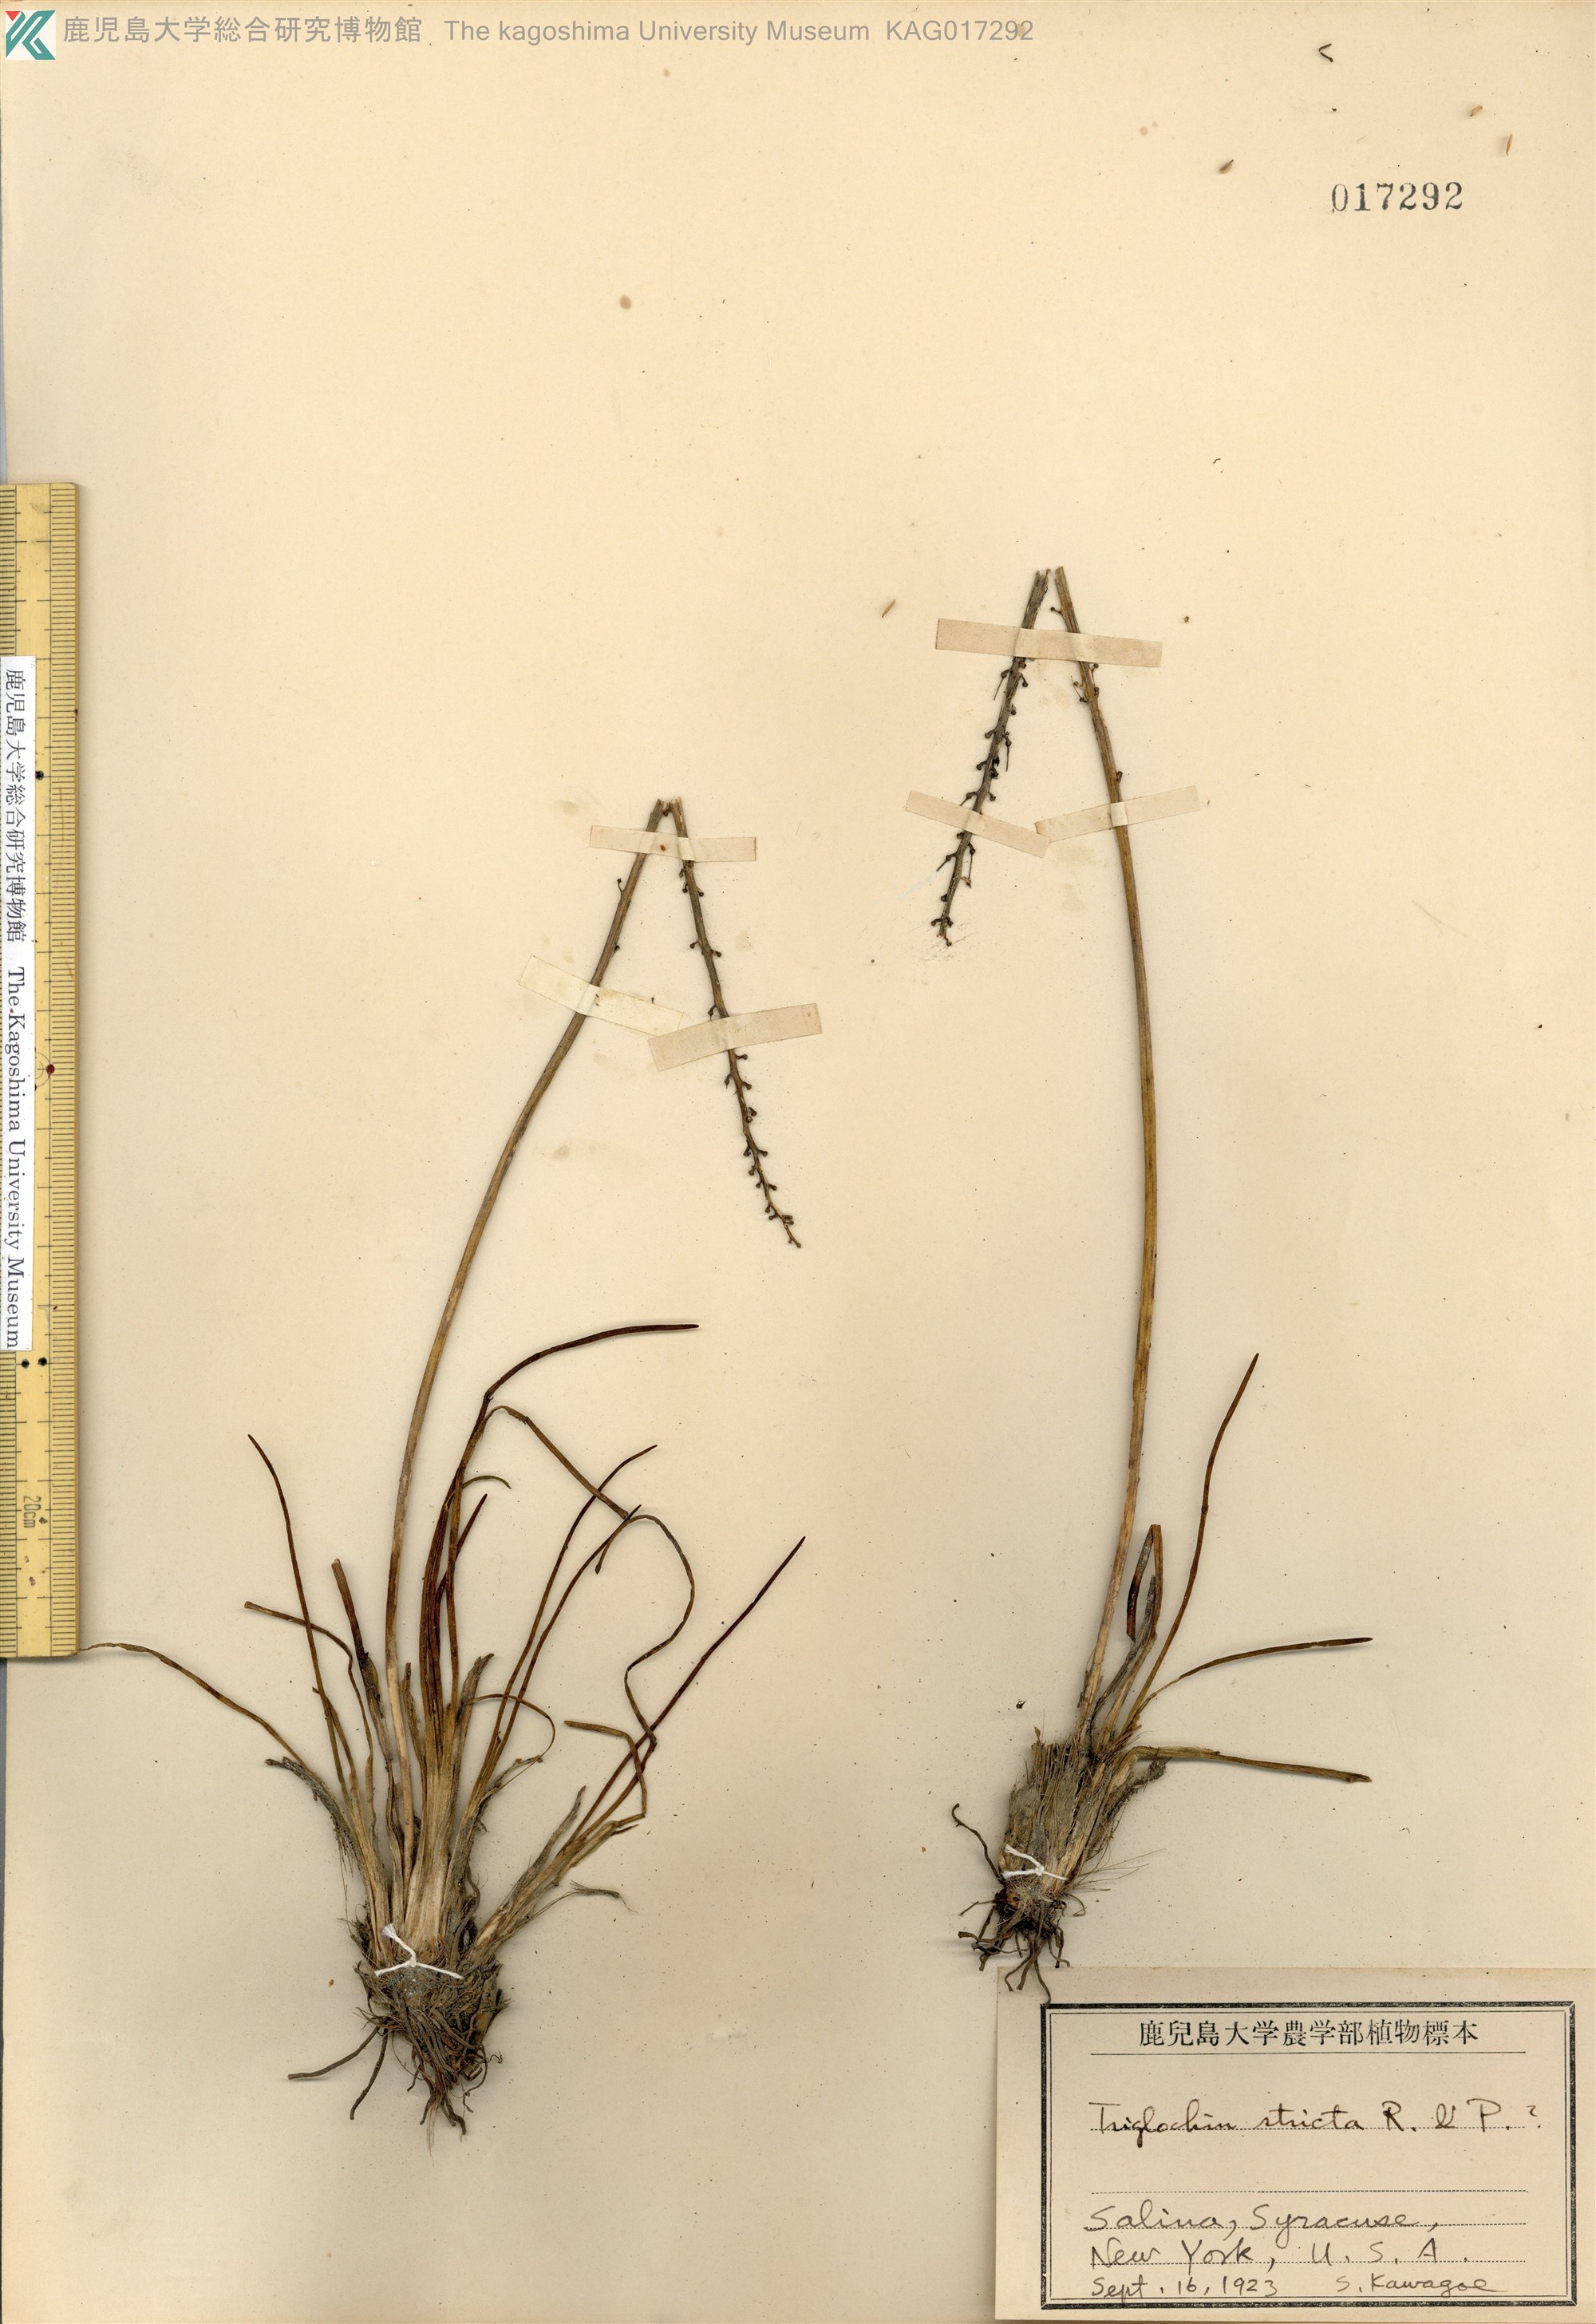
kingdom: Plantae
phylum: Tracheophyta
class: Liliopsida
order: Alismatales
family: Juncaginaceae
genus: Triglochin
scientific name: Triglochin striata
